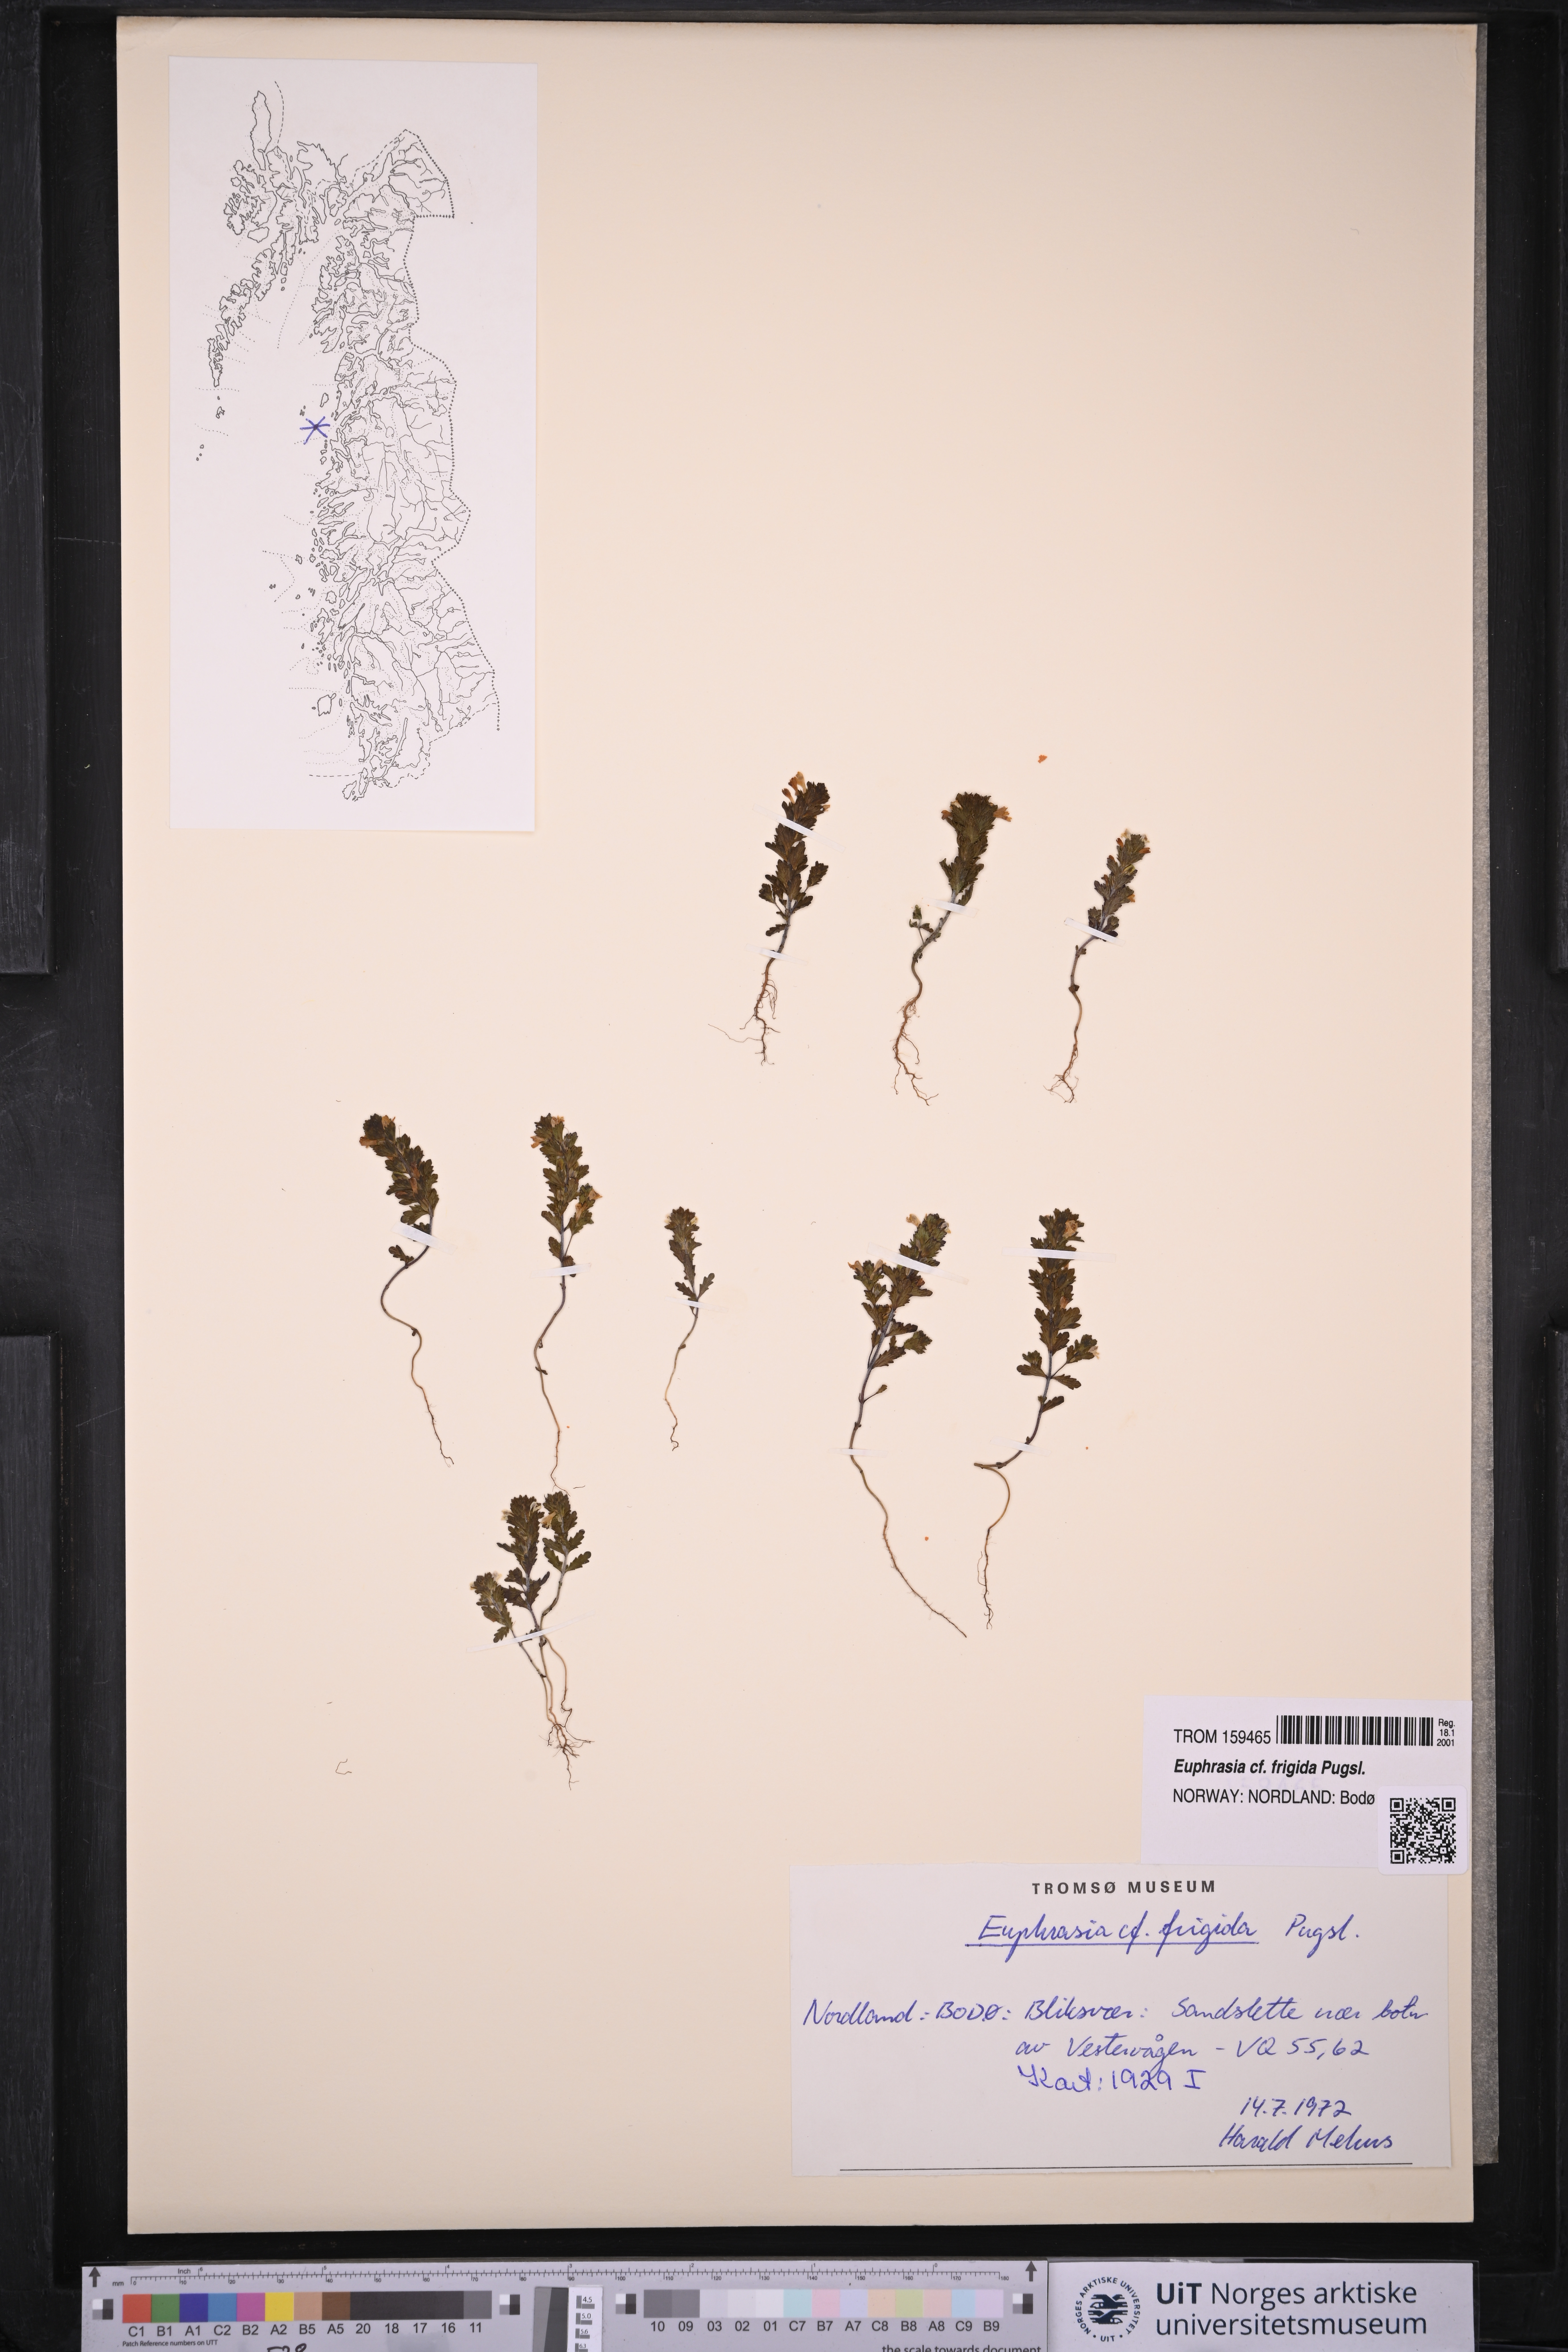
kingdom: Plantae
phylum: Tracheophyta
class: Magnoliopsida
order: Lamiales
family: Orobanchaceae
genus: Euphrasia
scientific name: Euphrasia frigida
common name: An eyebright
